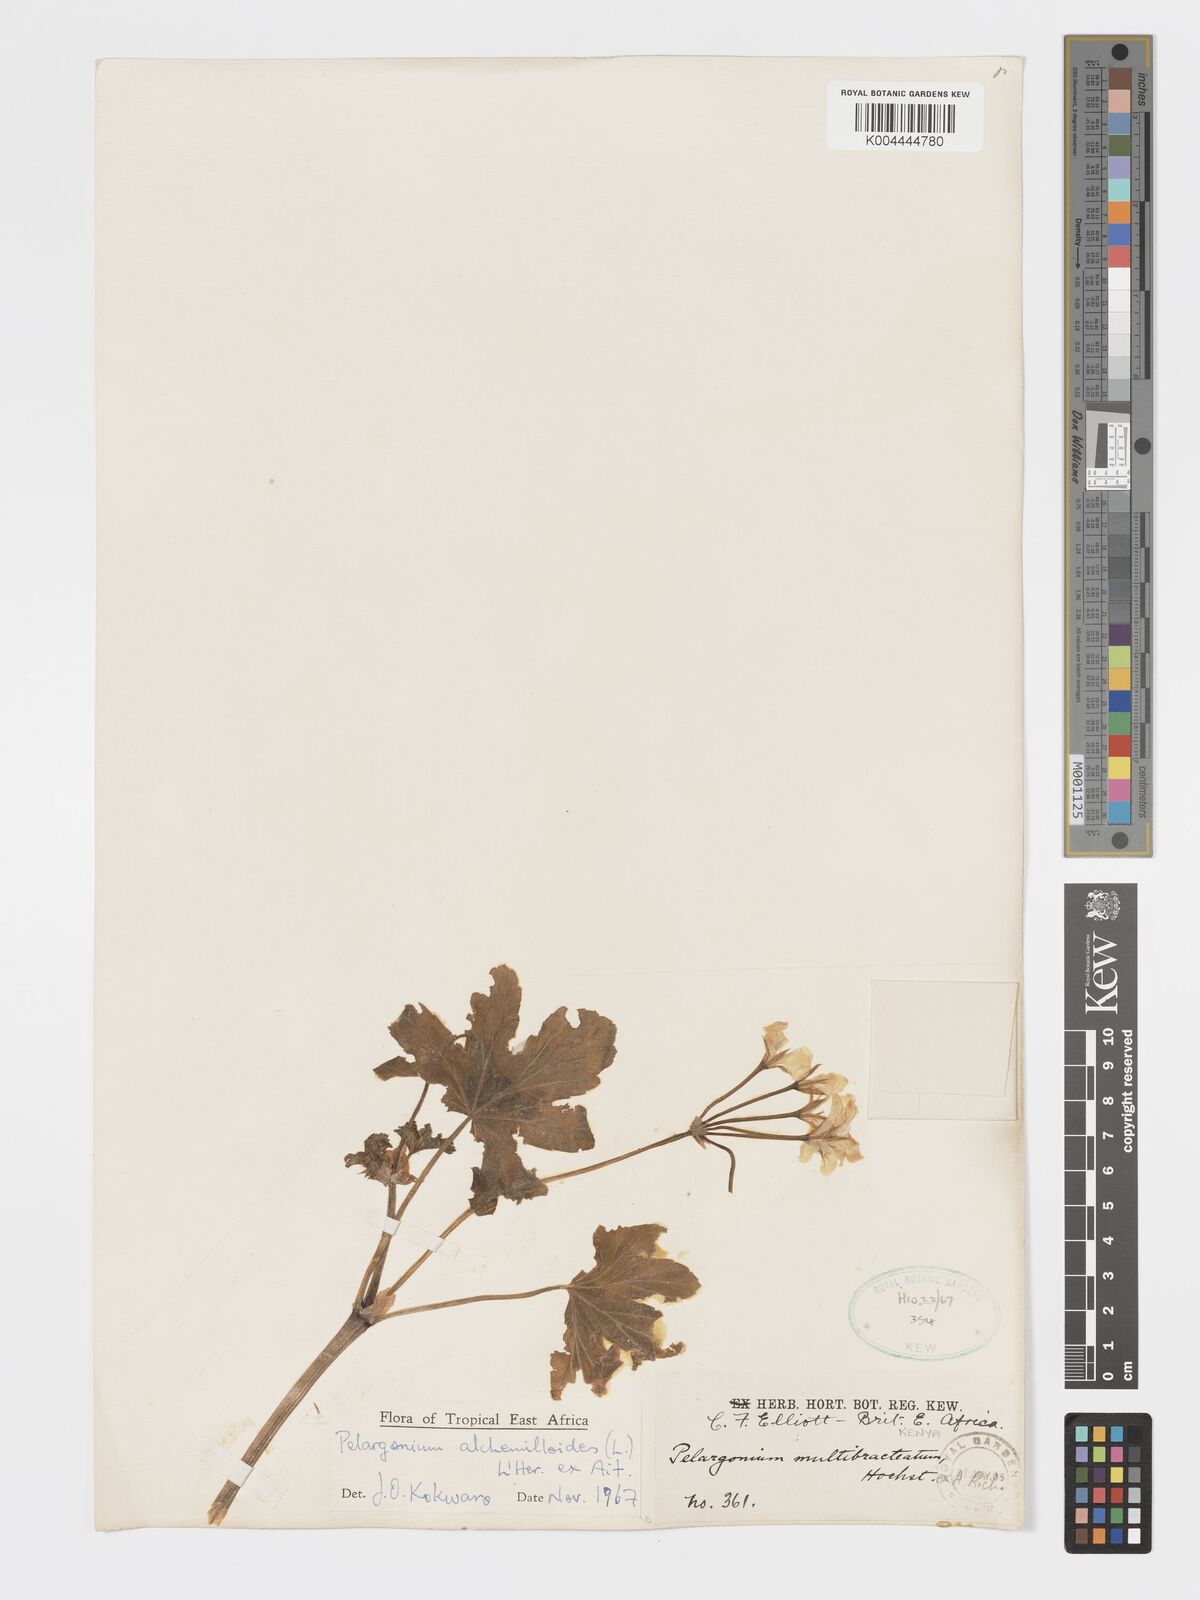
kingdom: Plantae
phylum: Tracheophyta
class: Magnoliopsida
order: Geraniales
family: Geraniaceae
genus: Pelargonium
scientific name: Pelargonium alchemilloides
